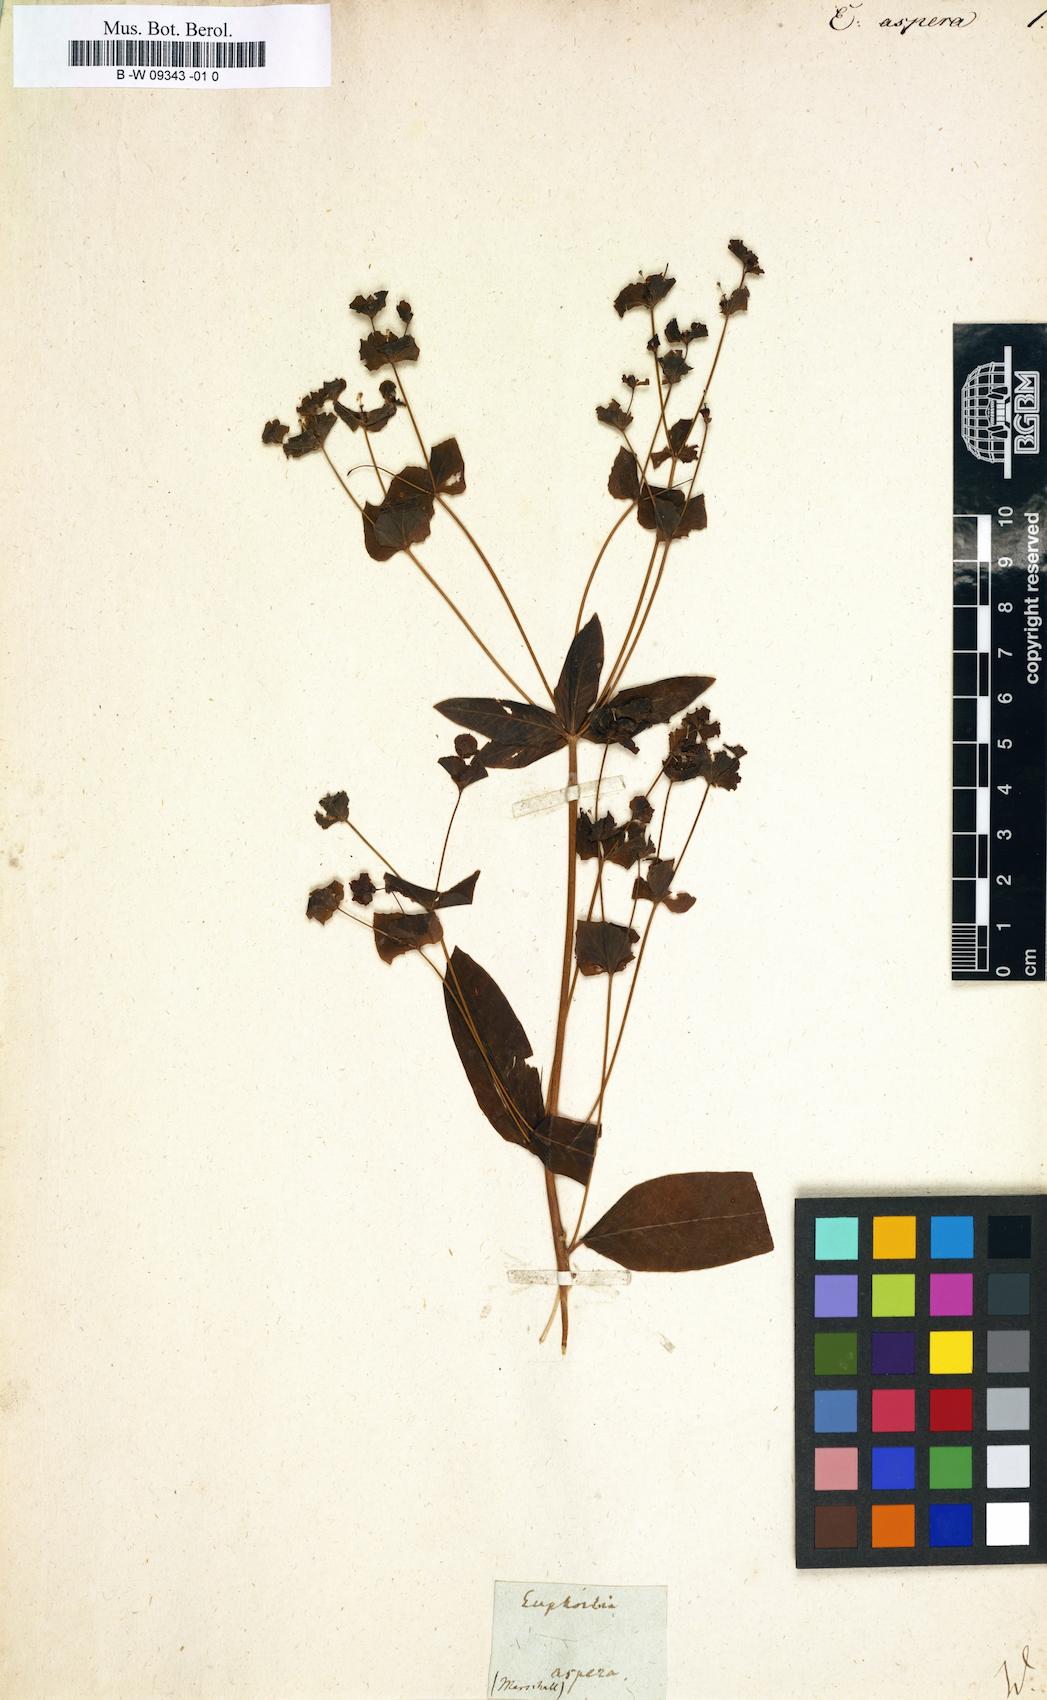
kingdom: Plantae
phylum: Tracheophyta
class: Magnoliopsida
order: Malpighiales
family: Euphorbiaceae
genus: Euphorbia
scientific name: Euphorbia squamosa
